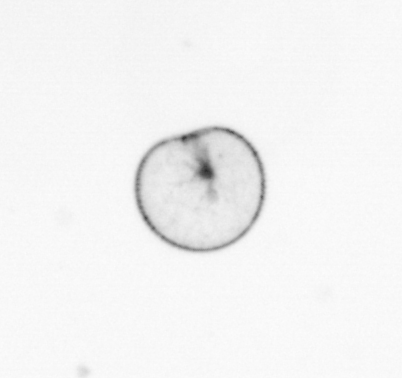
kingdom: Chromista
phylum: Myzozoa
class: Dinophyceae
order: Noctilucales
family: Noctilucaceae
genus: Noctiluca
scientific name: Noctiluca scintillans
